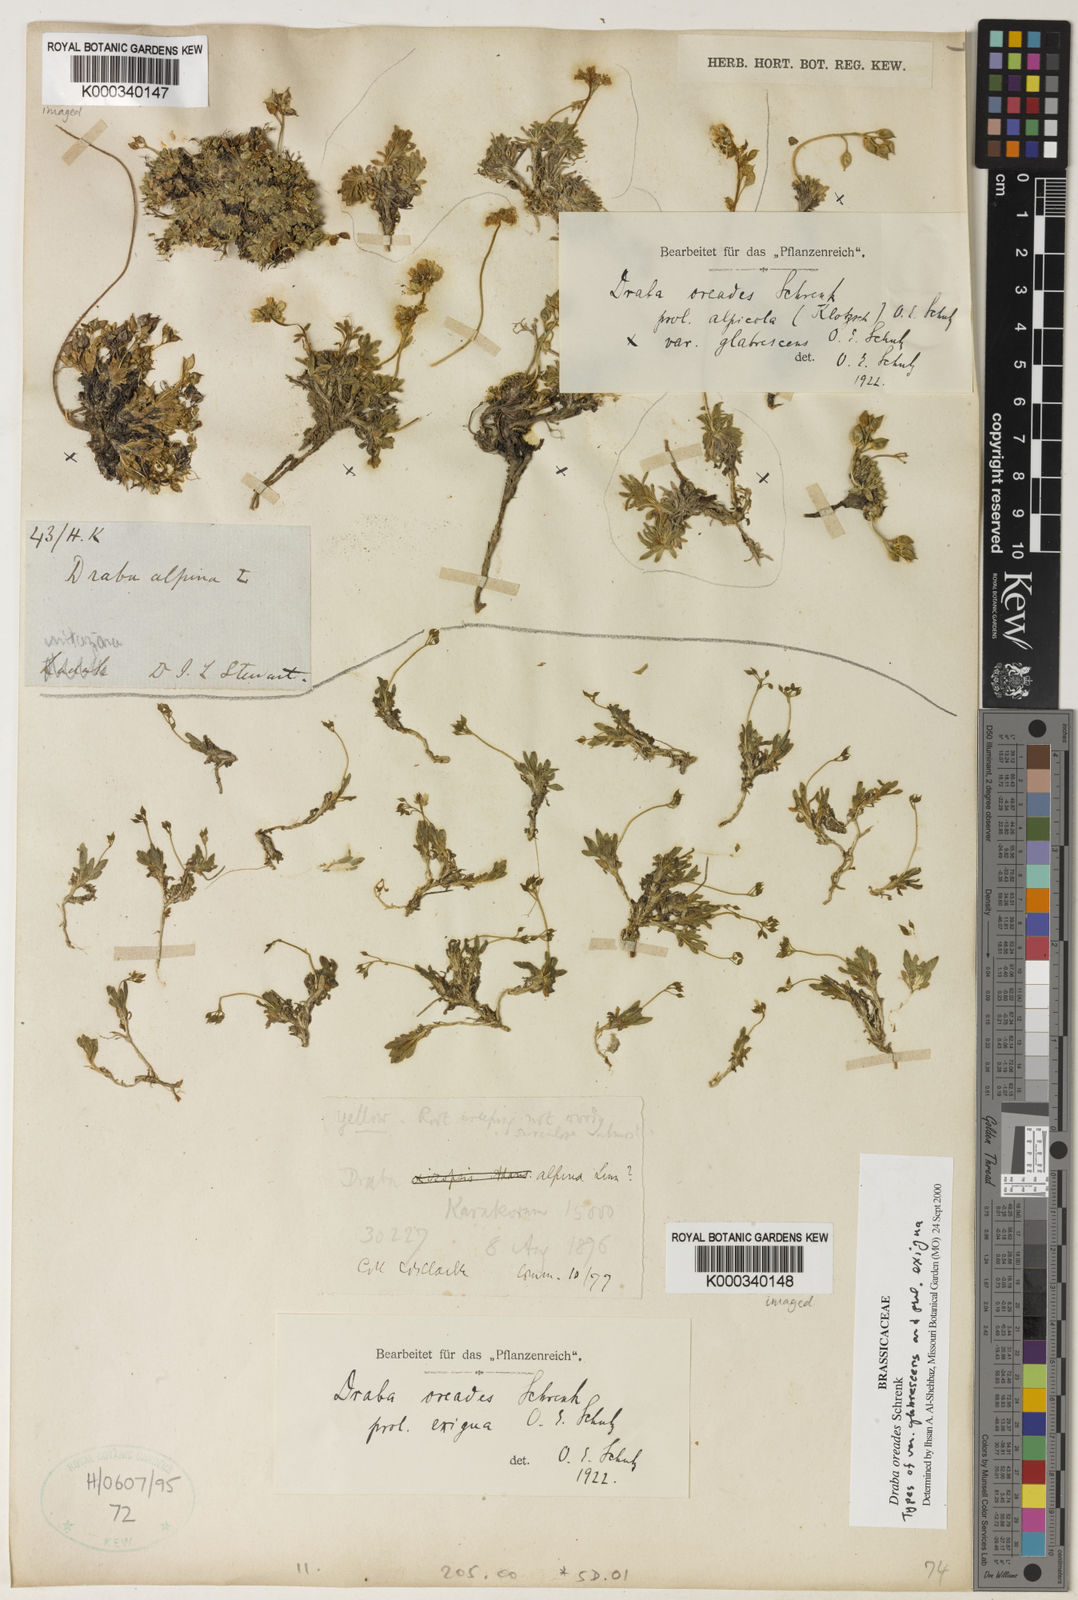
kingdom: Plantae
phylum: Tracheophyta
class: Magnoliopsida
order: Brassicales
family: Brassicaceae
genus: Draba
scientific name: Draba oreades
